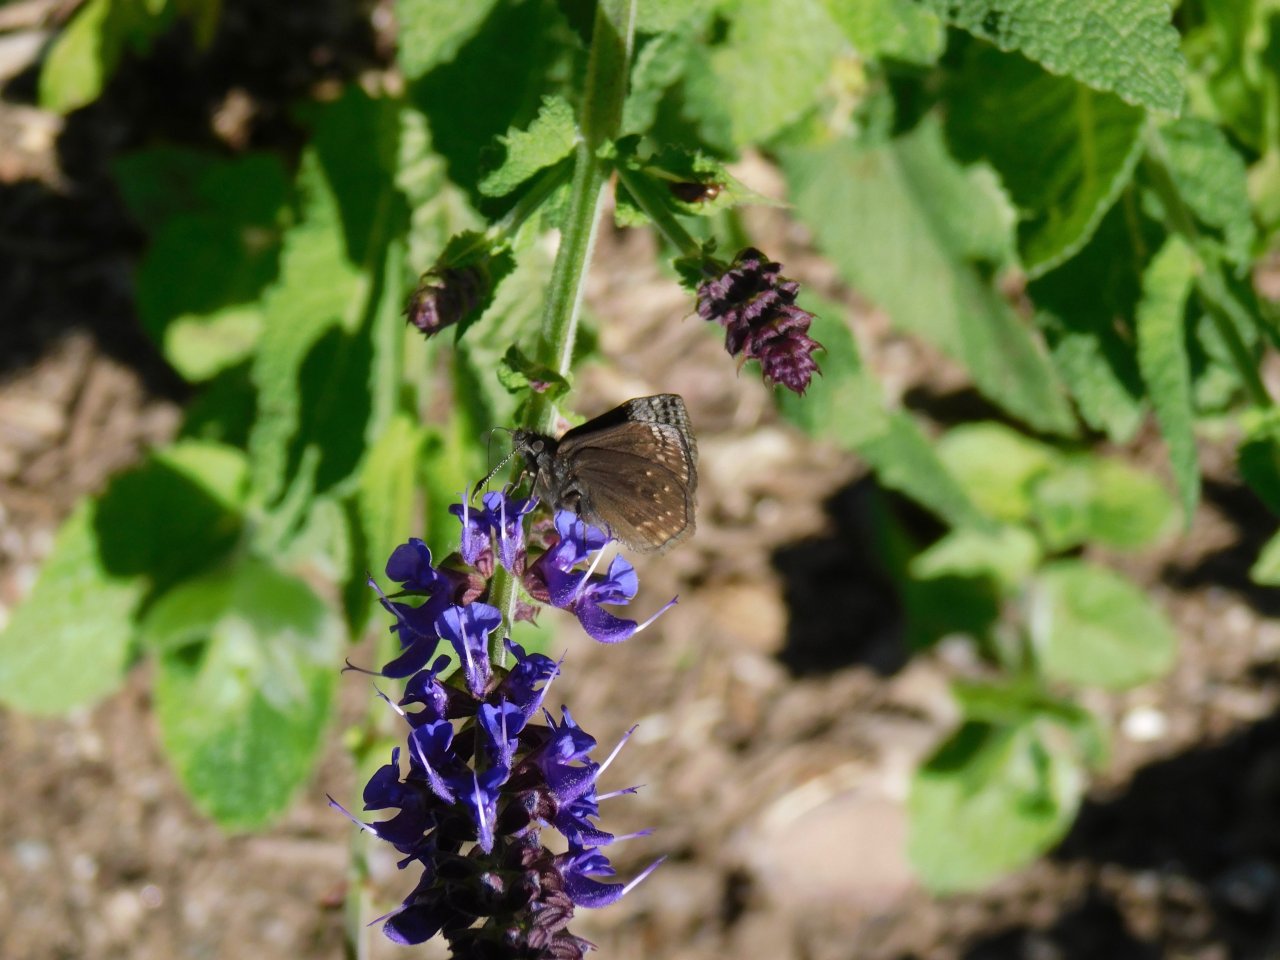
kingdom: Animalia
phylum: Arthropoda
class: Insecta
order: Lepidoptera
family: Hesperiidae
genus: Erynnis
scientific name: Erynnis icelus
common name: Dreamy Duskywing
